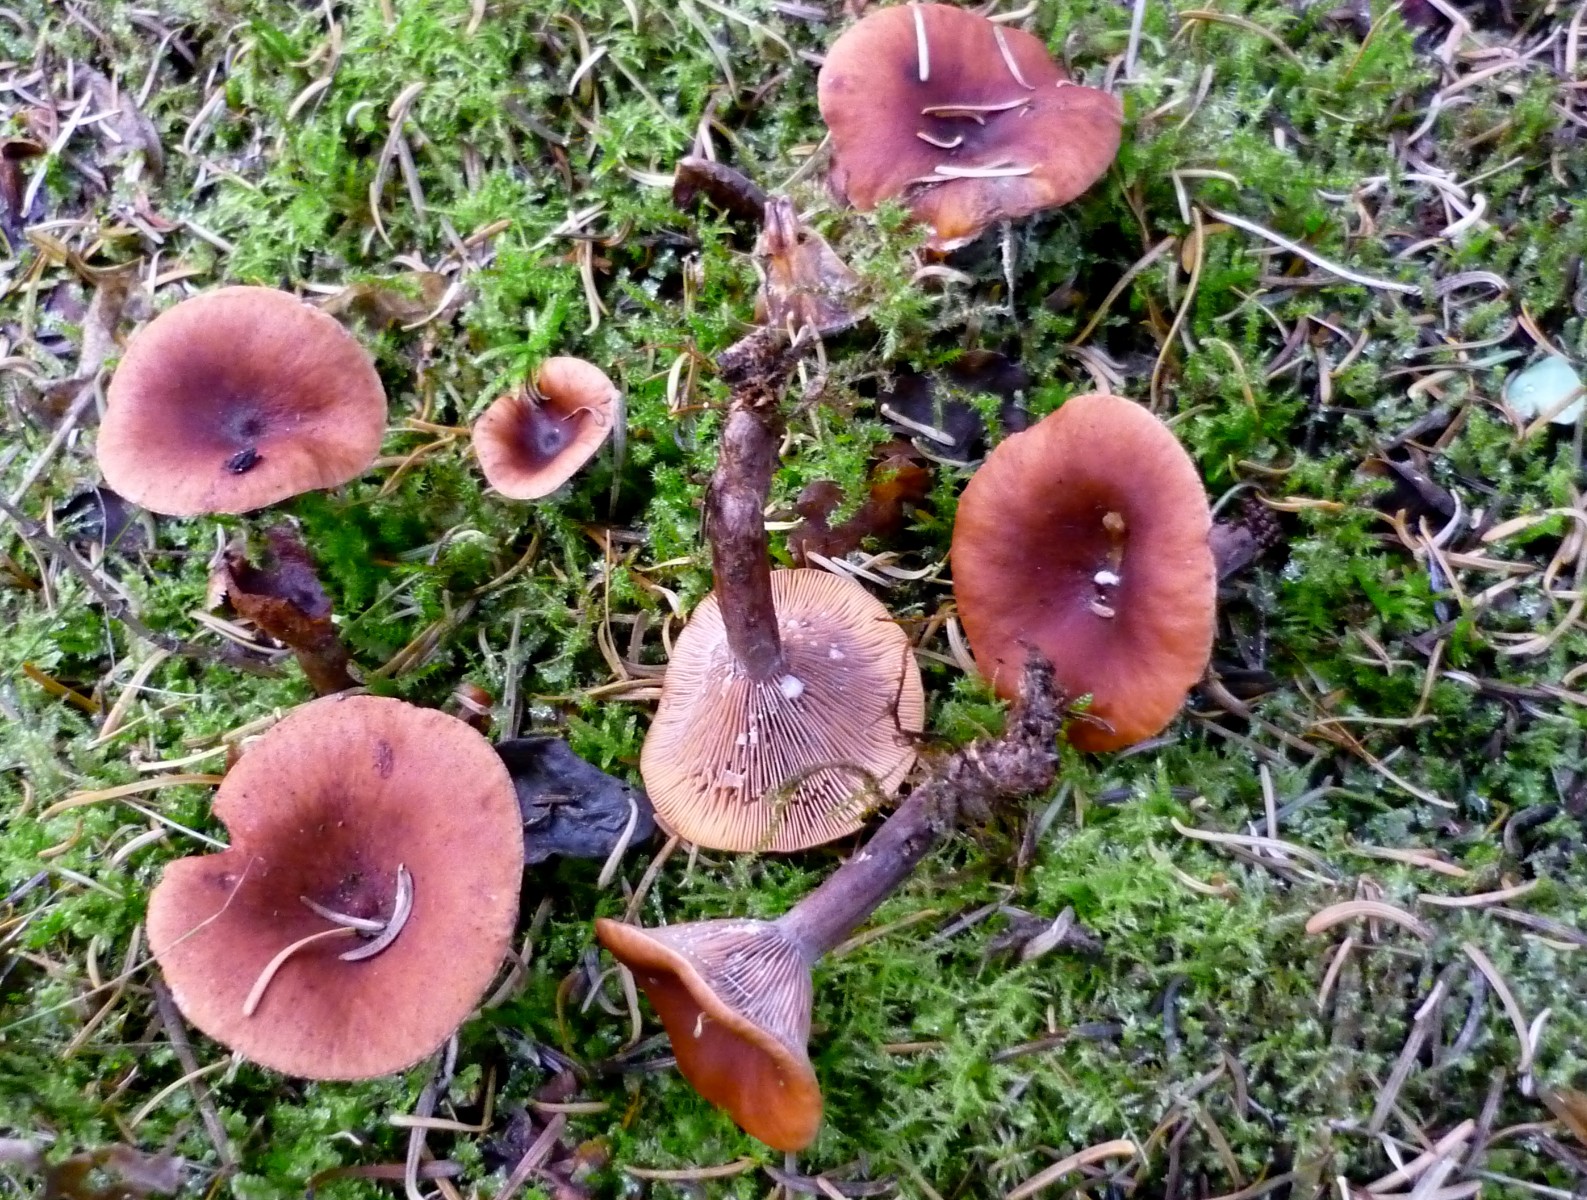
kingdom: Fungi
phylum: Basidiomycota
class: Agaricomycetes
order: Russulales
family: Russulaceae
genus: Lactarius
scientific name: Lactarius camphoratus
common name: kamfer-mælkehat
